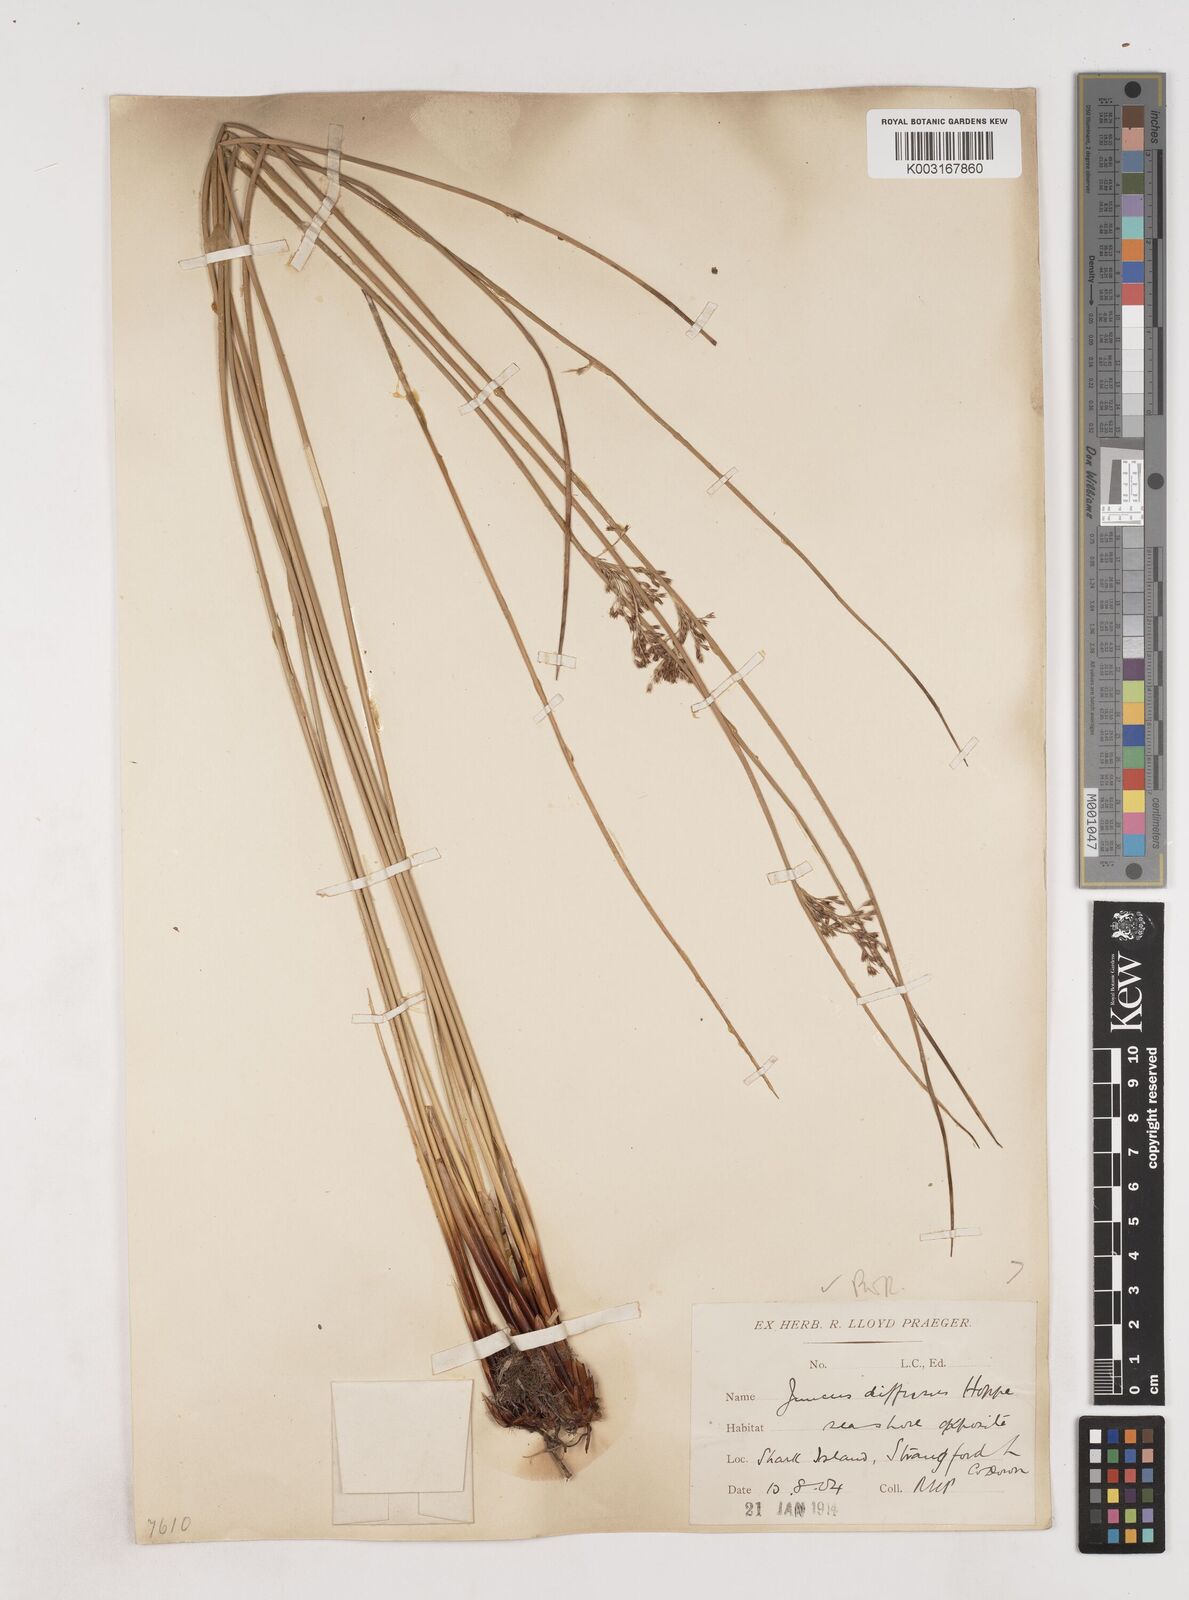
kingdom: Plantae
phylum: Tracheophyta
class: Liliopsida
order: Poales
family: Juncaceae
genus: Juncus
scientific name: Juncus effusus
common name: Soft rush
